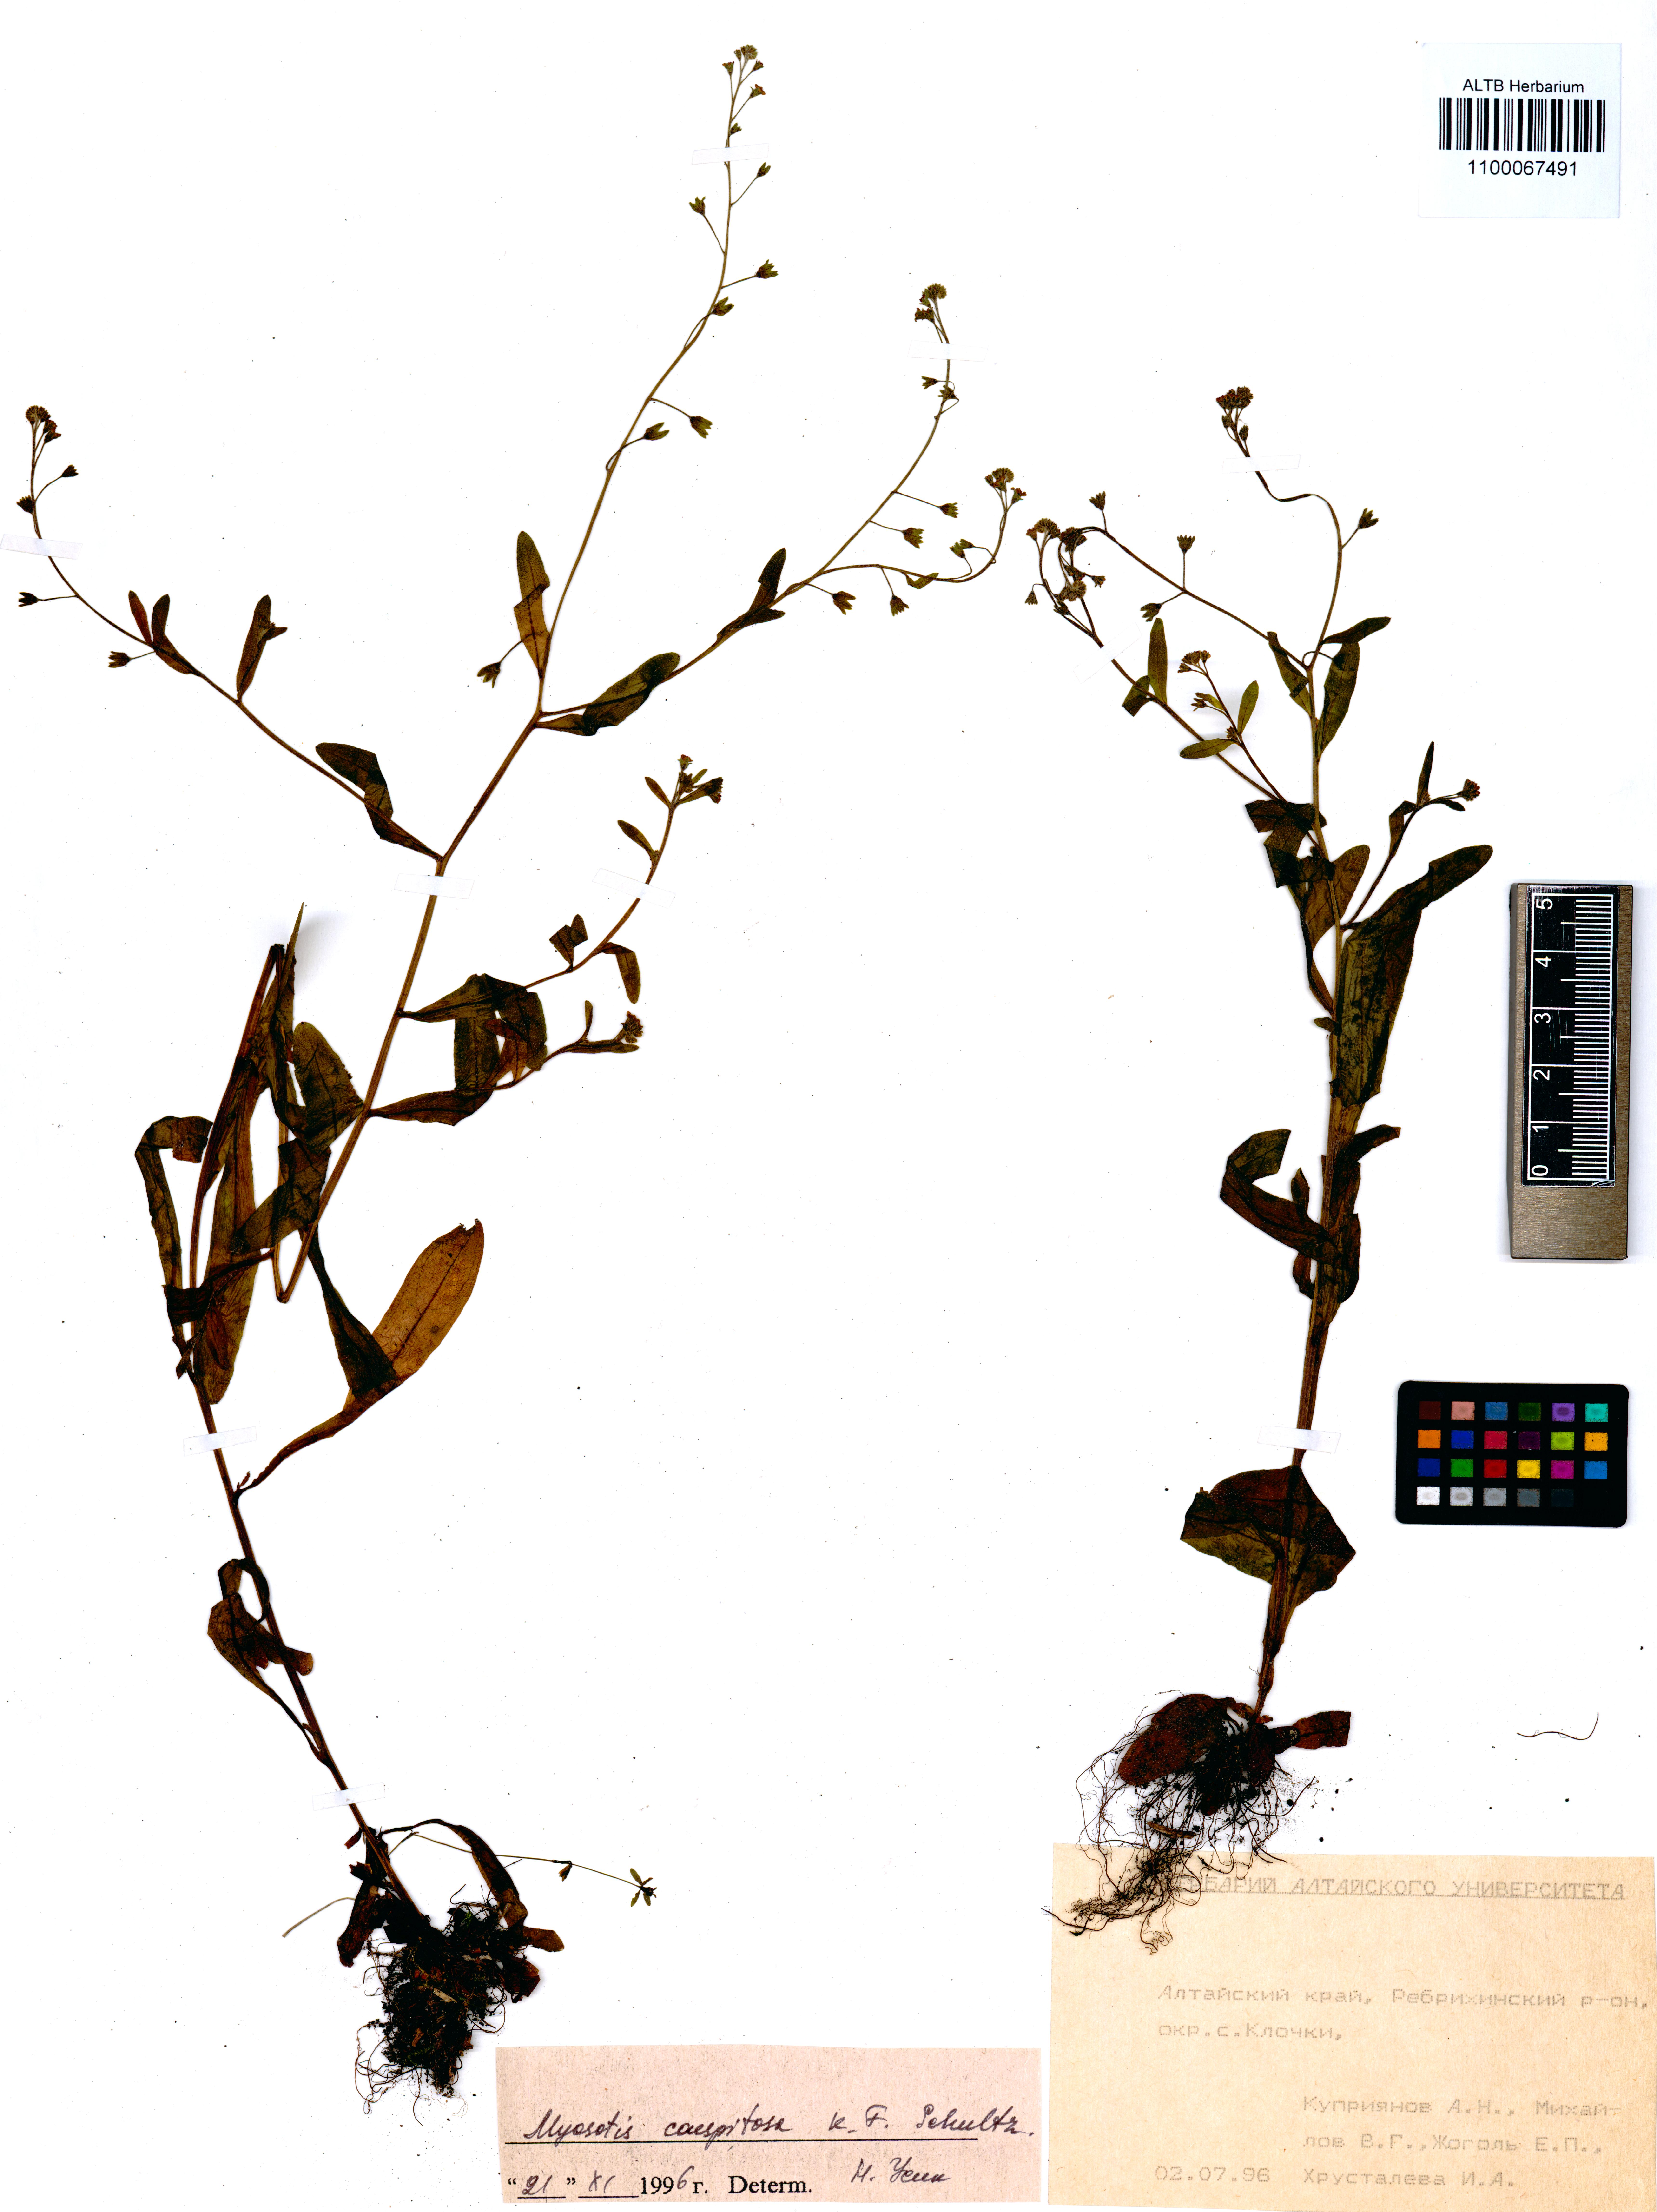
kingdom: Plantae
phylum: Tracheophyta
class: Magnoliopsida
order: Boraginales
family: Boraginaceae
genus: Myosotis
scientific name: Myosotis laxa
